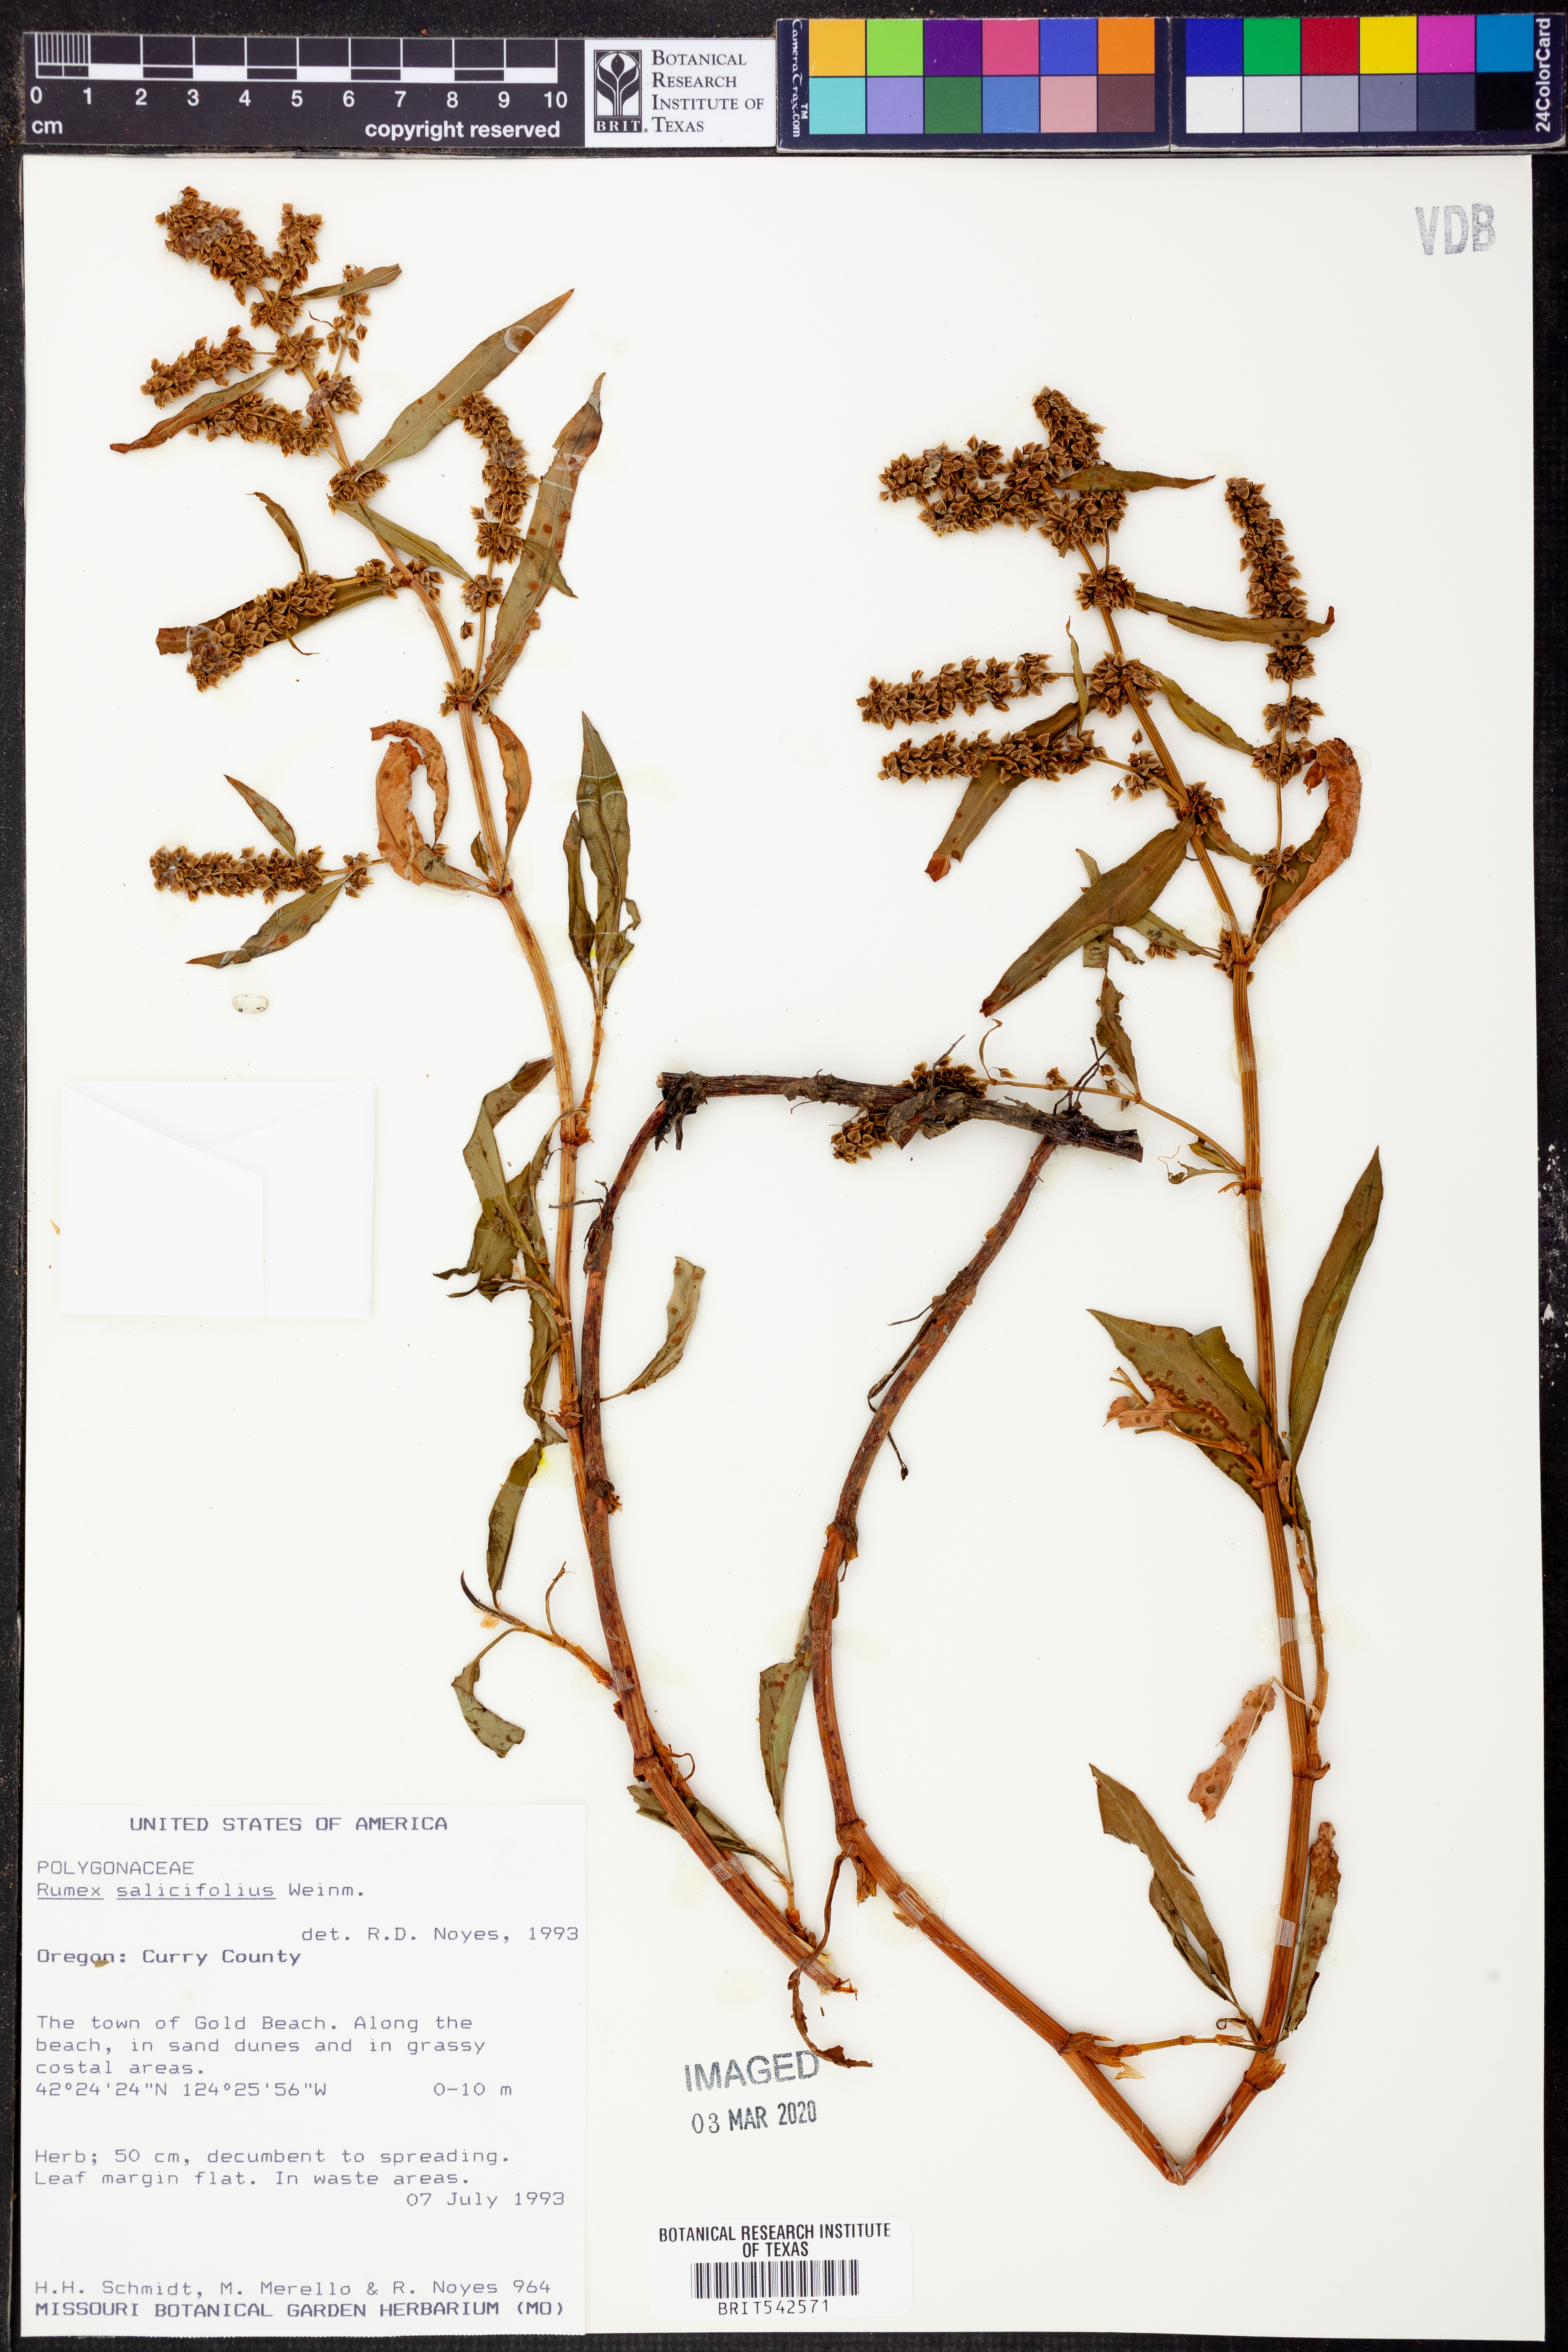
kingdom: Plantae
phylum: Tracheophyta
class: Magnoliopsida
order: Caryophyllales
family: Polygonaceae
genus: Rumex
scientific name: Rumex salicifolius
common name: Willow-leaved dock
